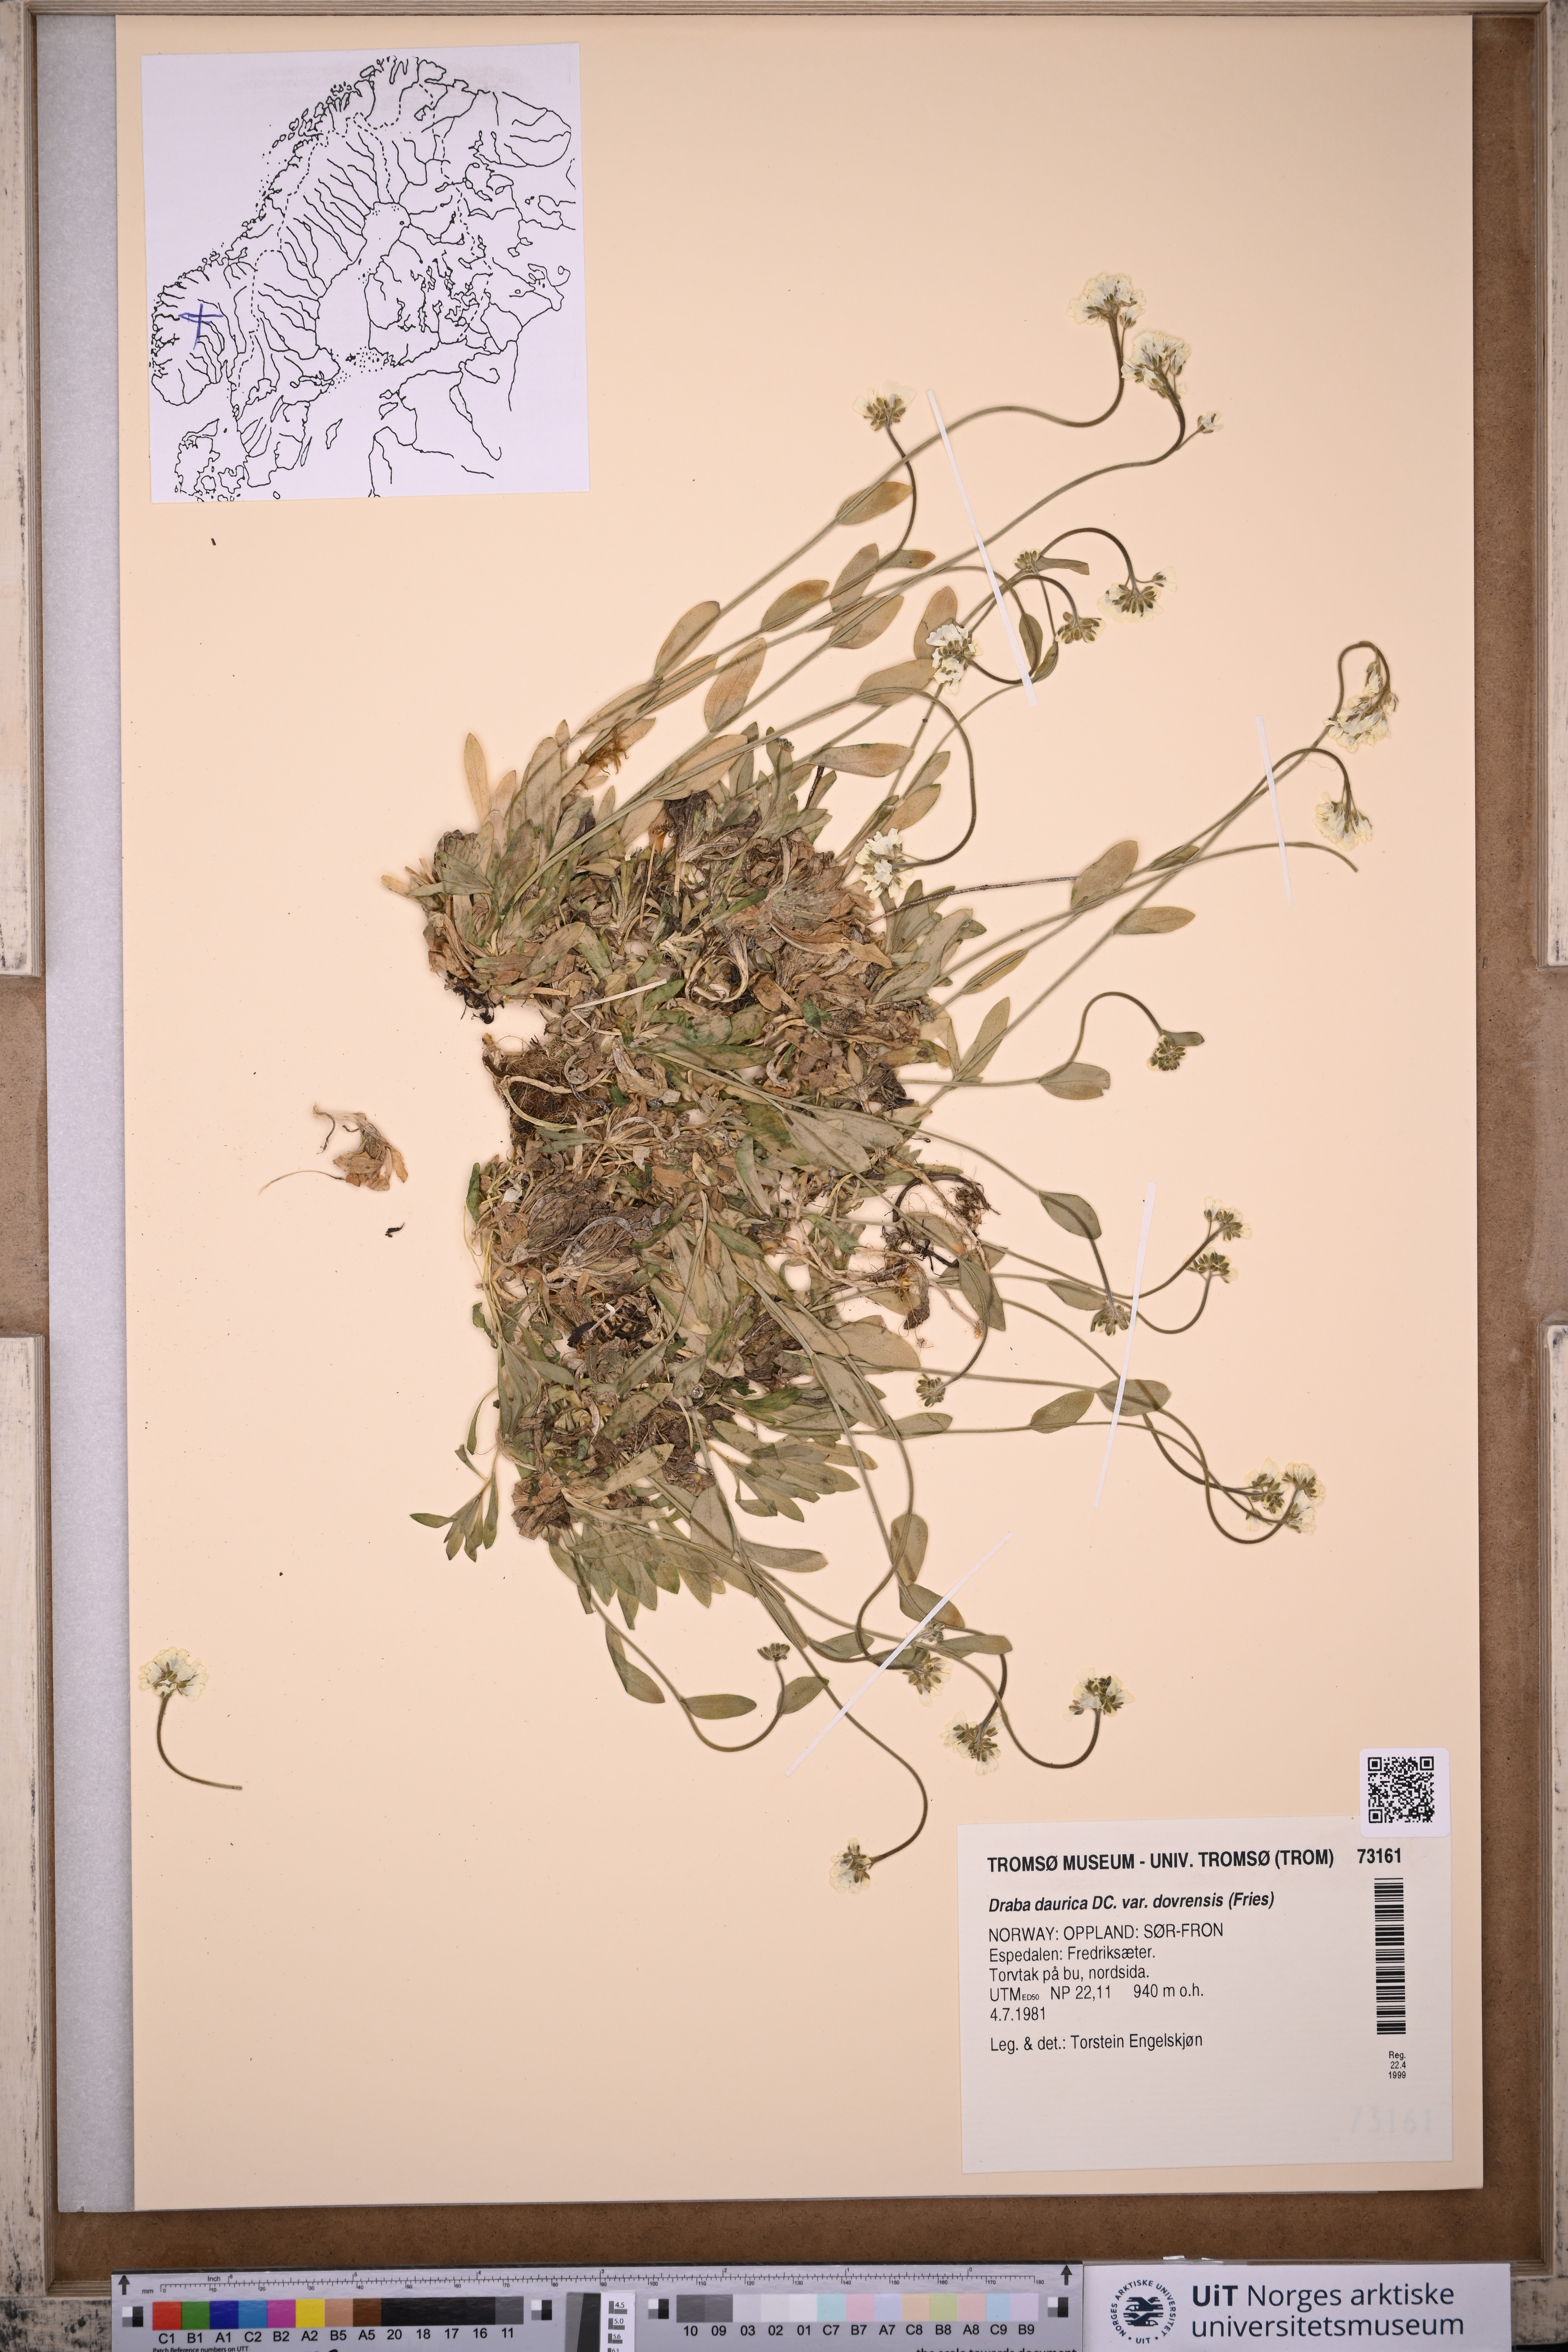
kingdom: Plantae
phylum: Tracheophyta
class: Magnoliopsida
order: Brassicales
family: Brassicaceae
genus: Draba
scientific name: Draba glabella
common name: Glaucous draba
